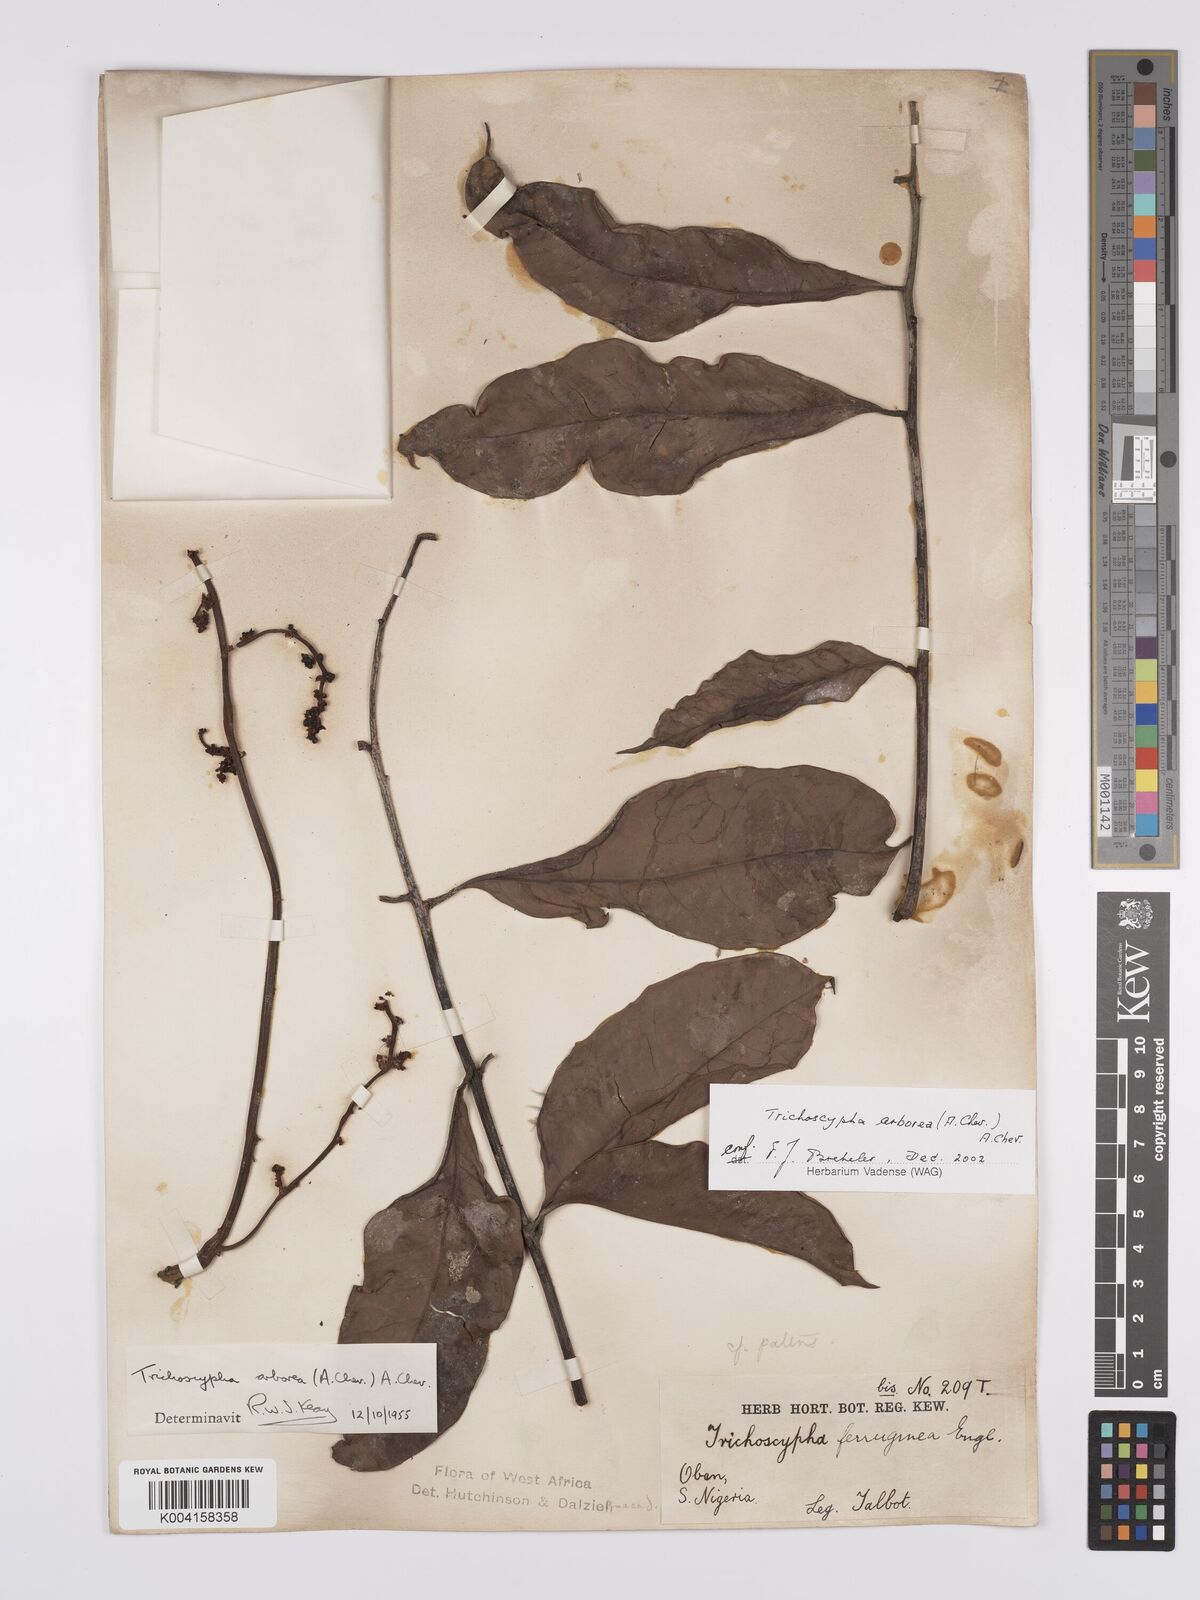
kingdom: Plantae
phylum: Tracheophyta
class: Magnoliopsida
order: Sapindales
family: Anacardiaceae
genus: Trichoscypha
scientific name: Trichoscypha arborea
